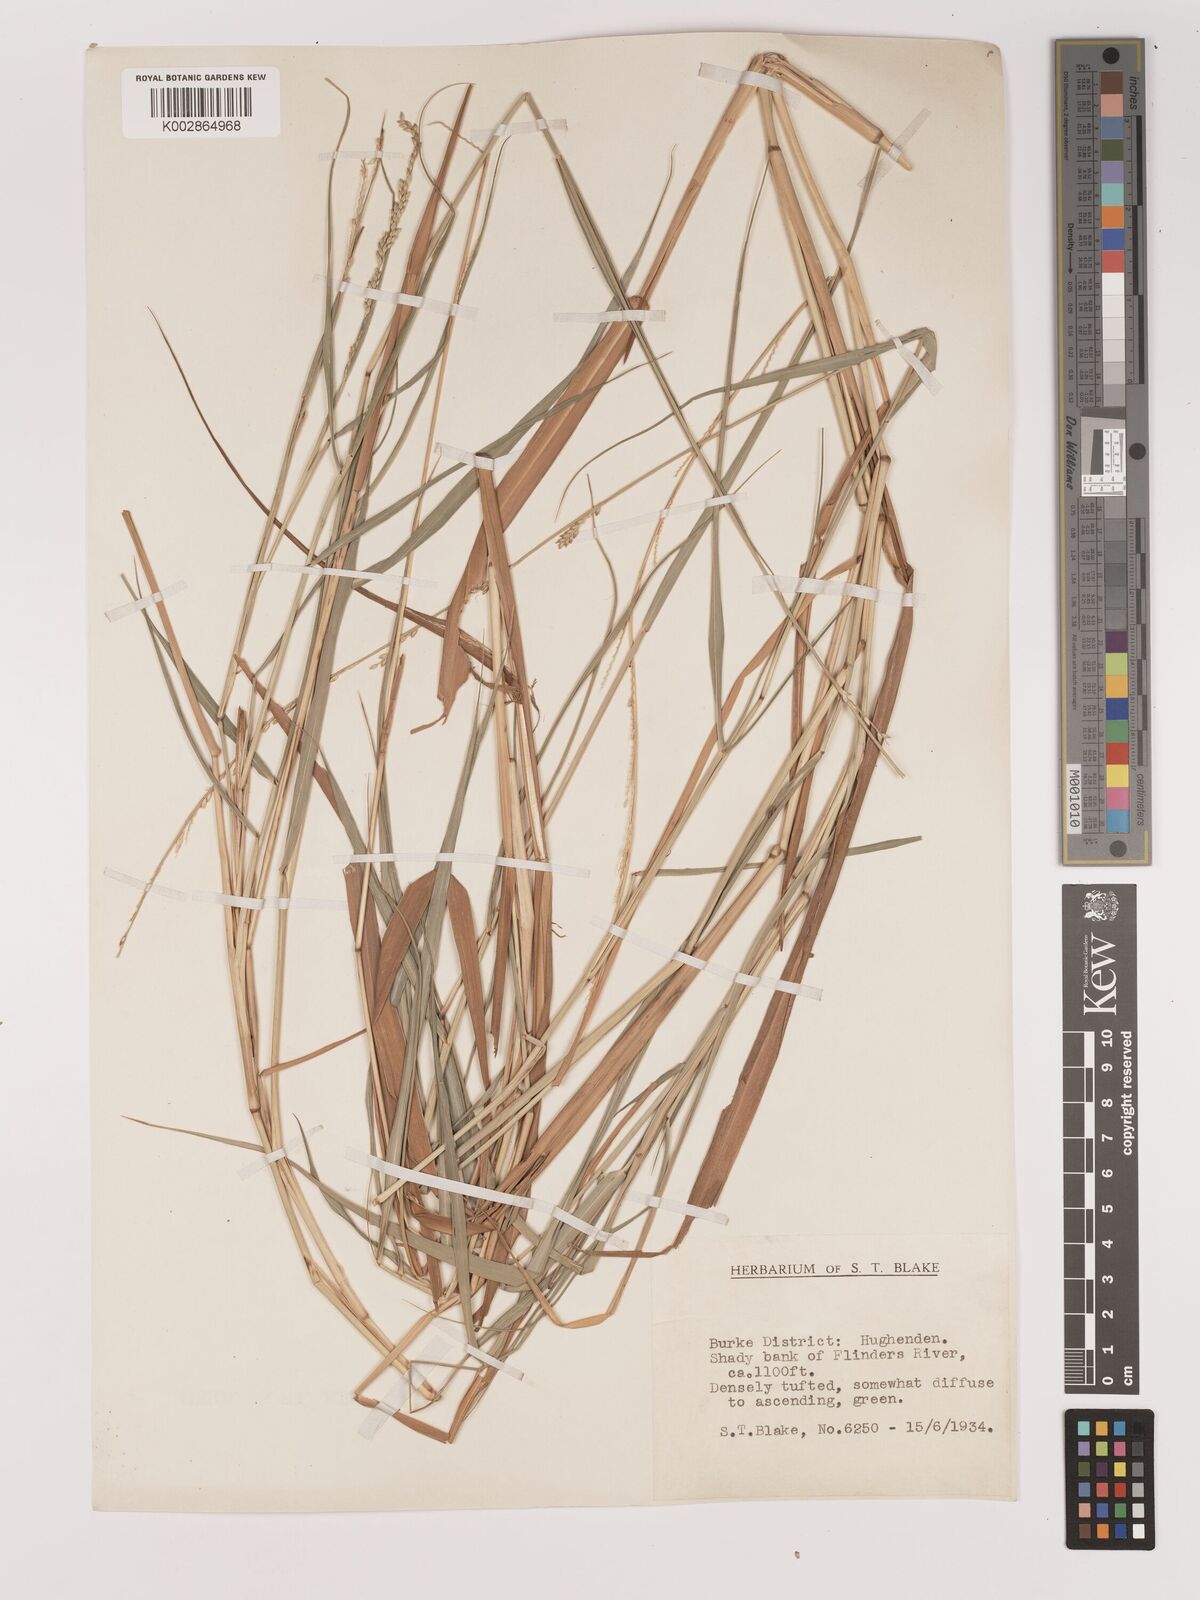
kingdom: Plantae
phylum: Tracheophyta
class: Liliopsida
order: Poales
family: Poaceae
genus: Setaria
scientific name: Setaria
